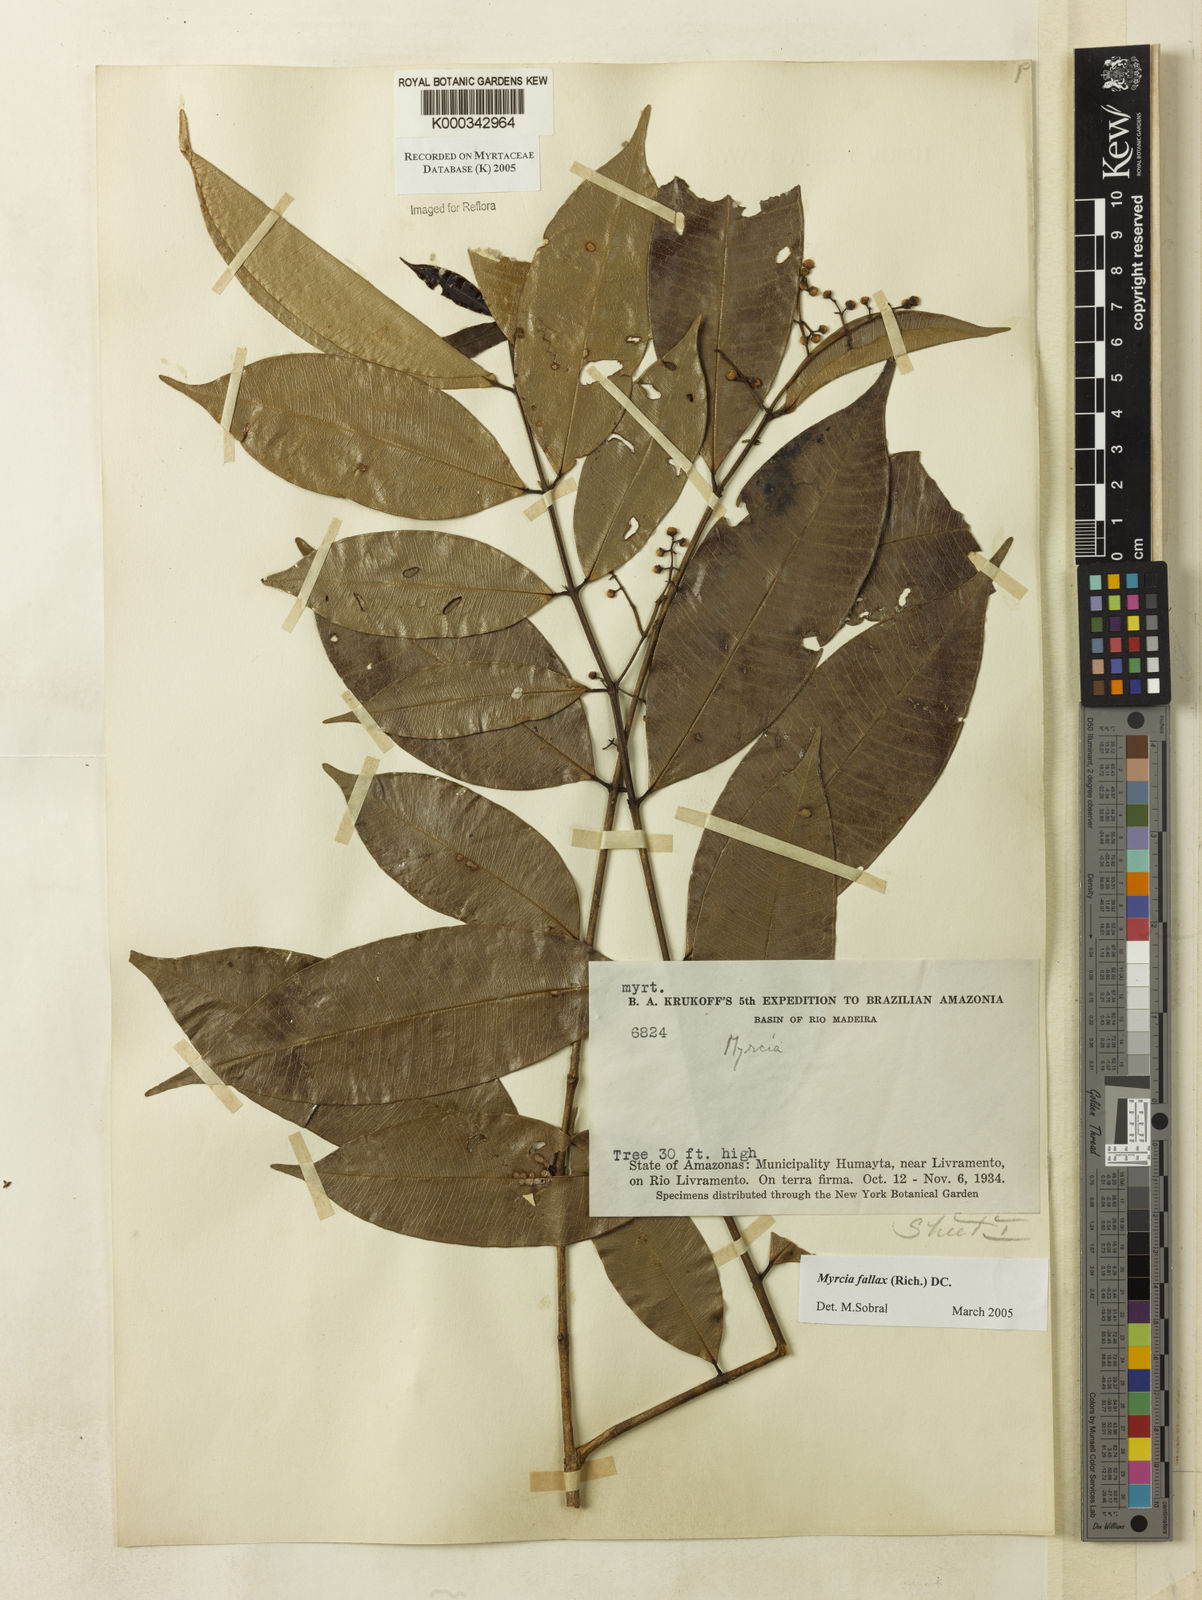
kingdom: Plantae
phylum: Tracheophyta
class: Magnoliopsida
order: Myrtales
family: Myrtaceae
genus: Myrcia
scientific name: Myrcia splendens
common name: Surinam cherry
